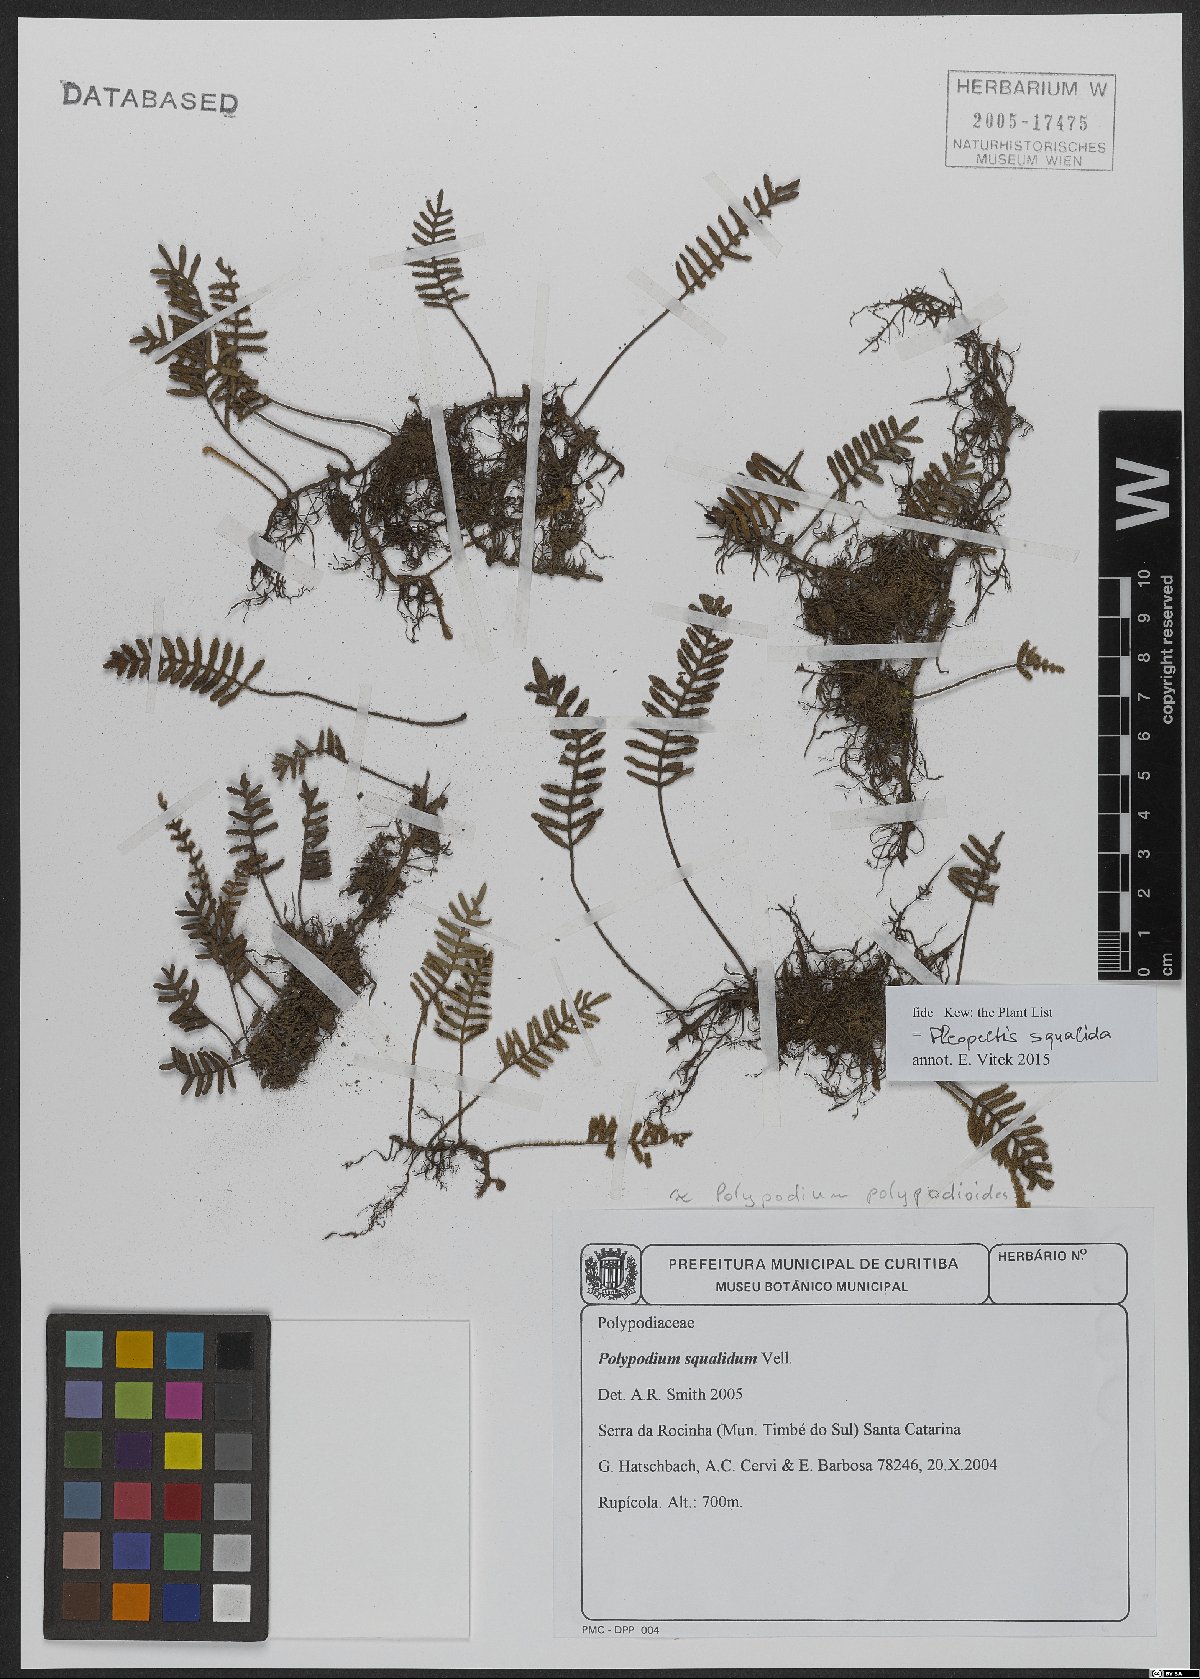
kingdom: Plantae
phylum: Tracheophyta
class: Polypodiopsida
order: Polypodiales
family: Polypodiaceae
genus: Pleopeltis
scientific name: Pleopeltis minima
